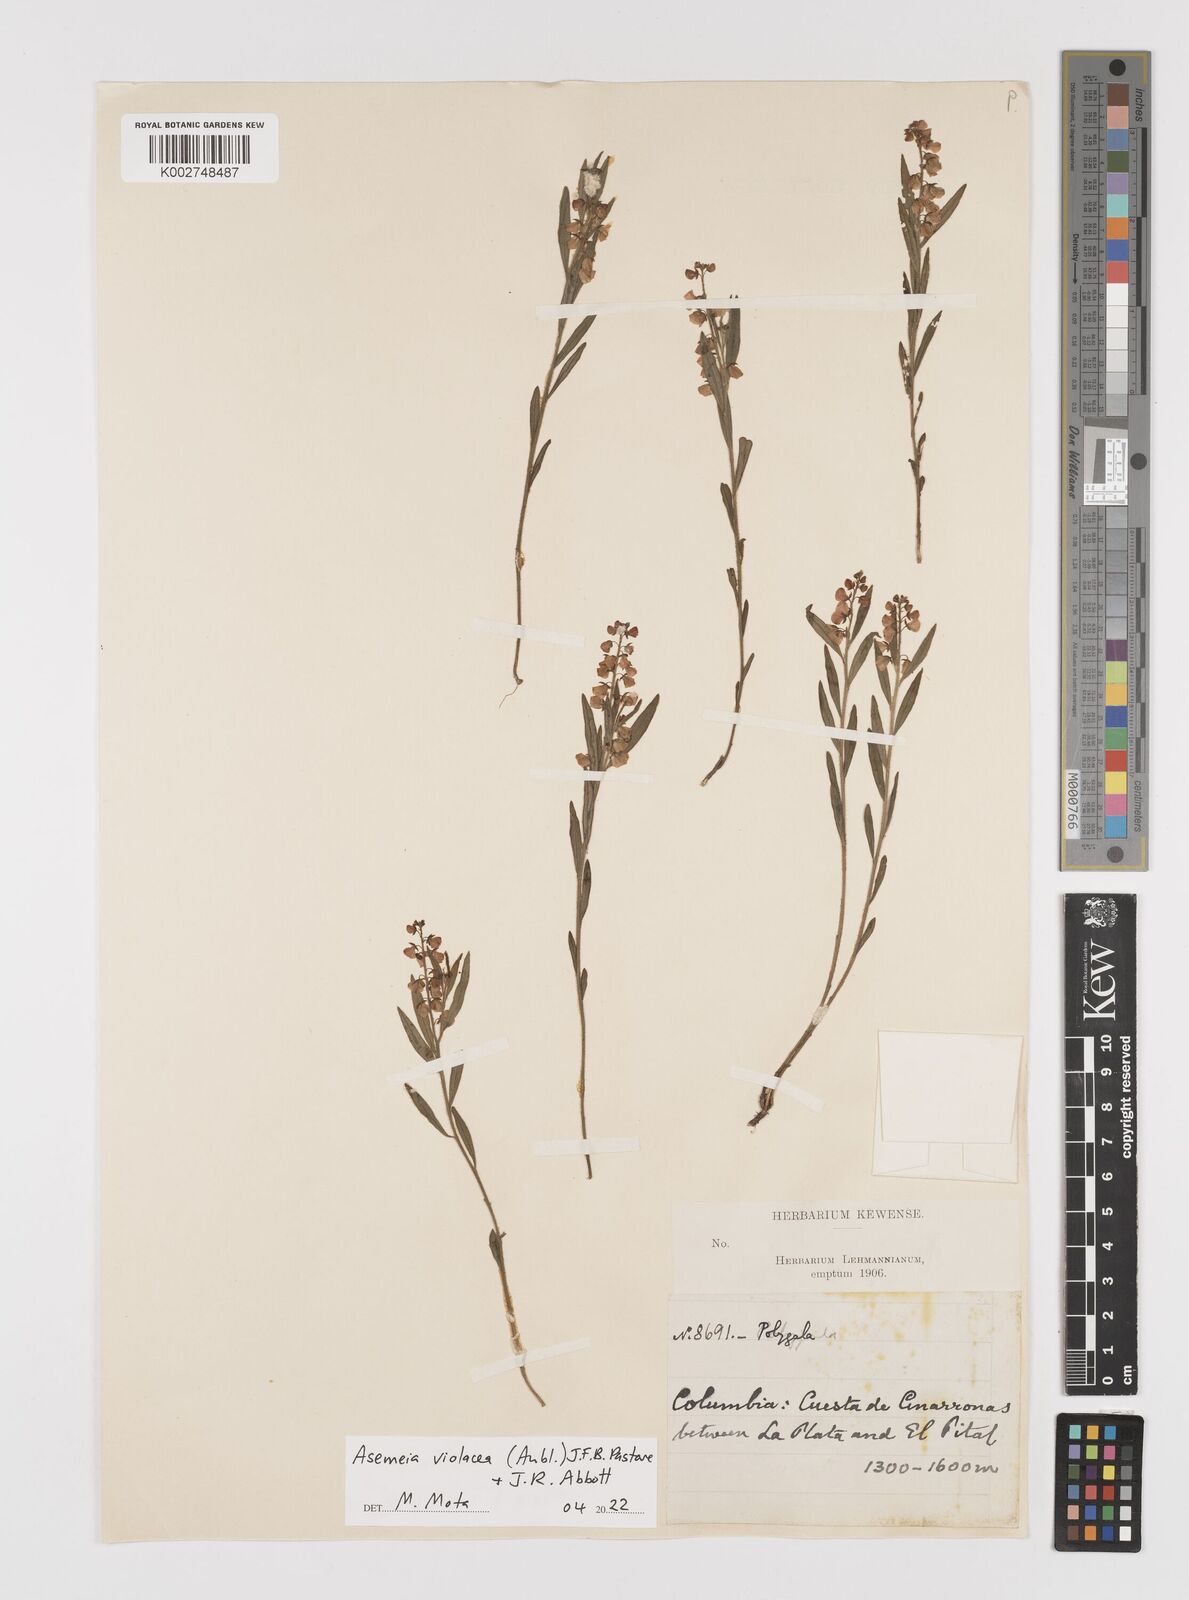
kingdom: Plantae
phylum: Tracheophyta
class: Magnoliopsida
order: Fabales
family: Polygalaceae
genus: Asemeia
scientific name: Asemeia violacea
